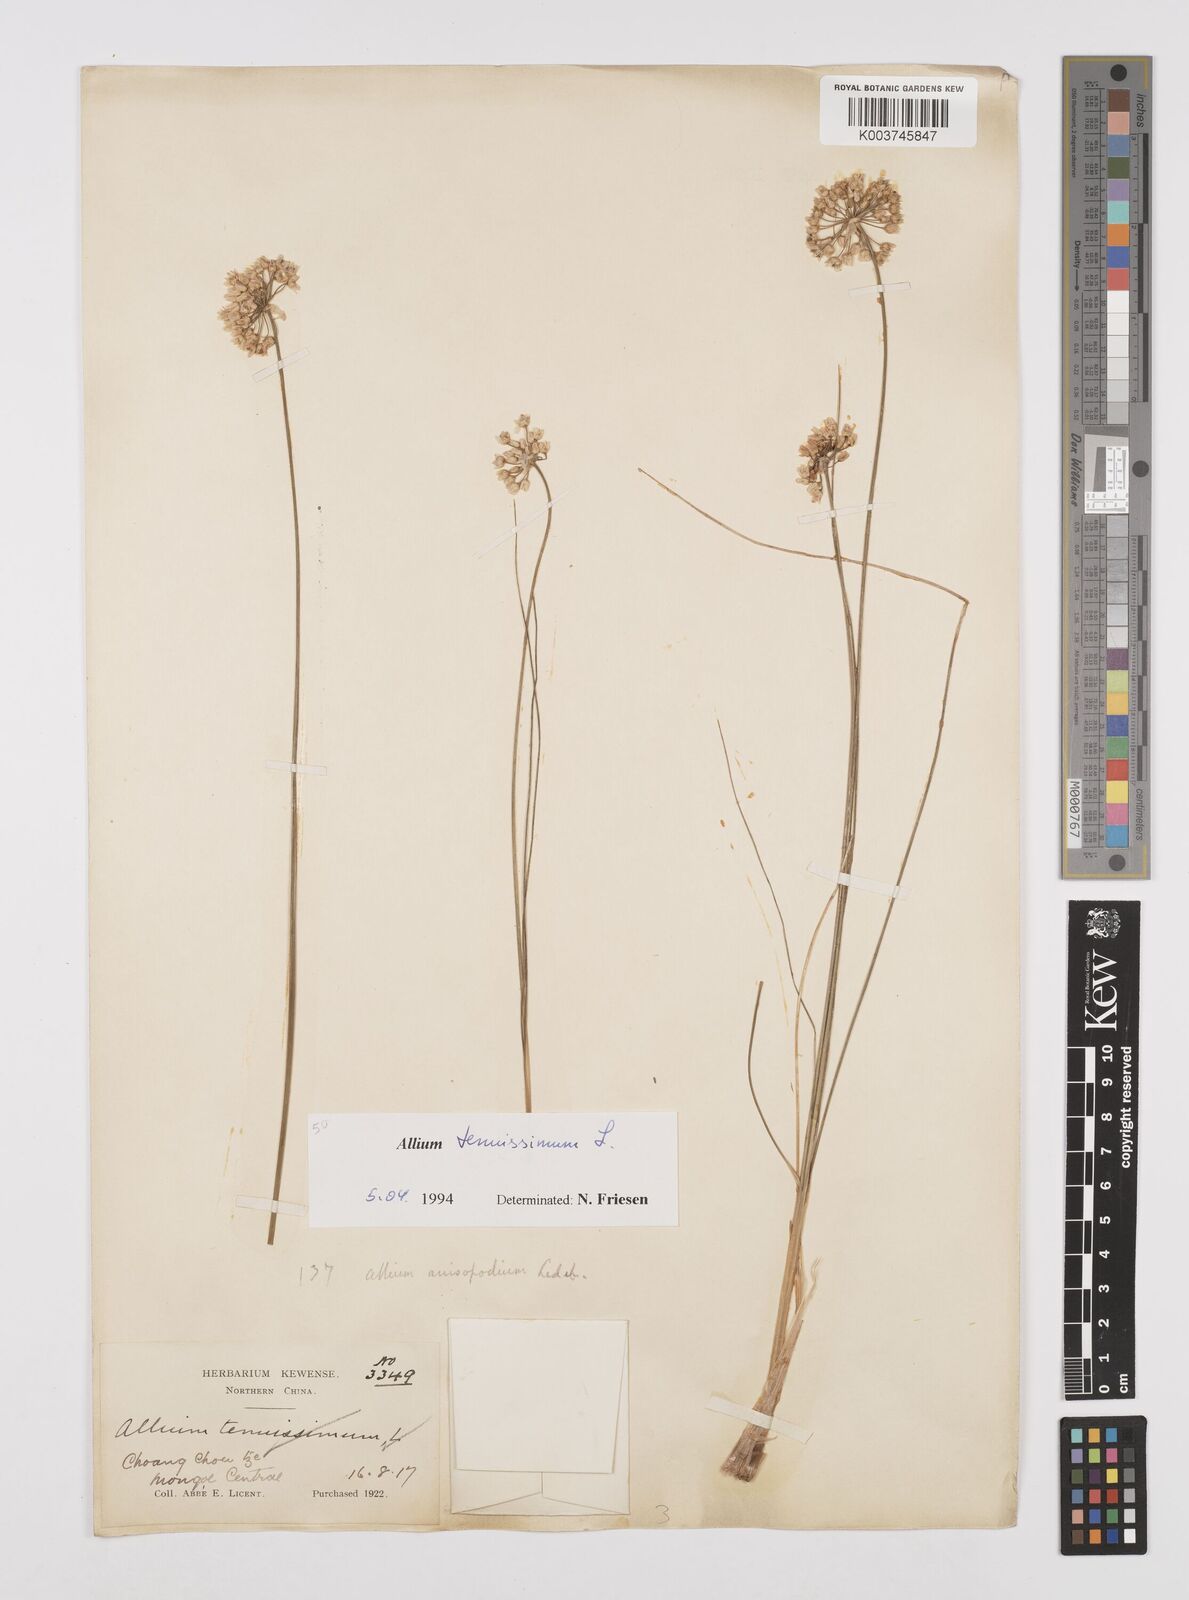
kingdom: Plantae
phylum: Tracheophyta
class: Liliopsida
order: Asparagales
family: Amaryllidaceae
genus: Allium
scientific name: Allium tenuissimum
